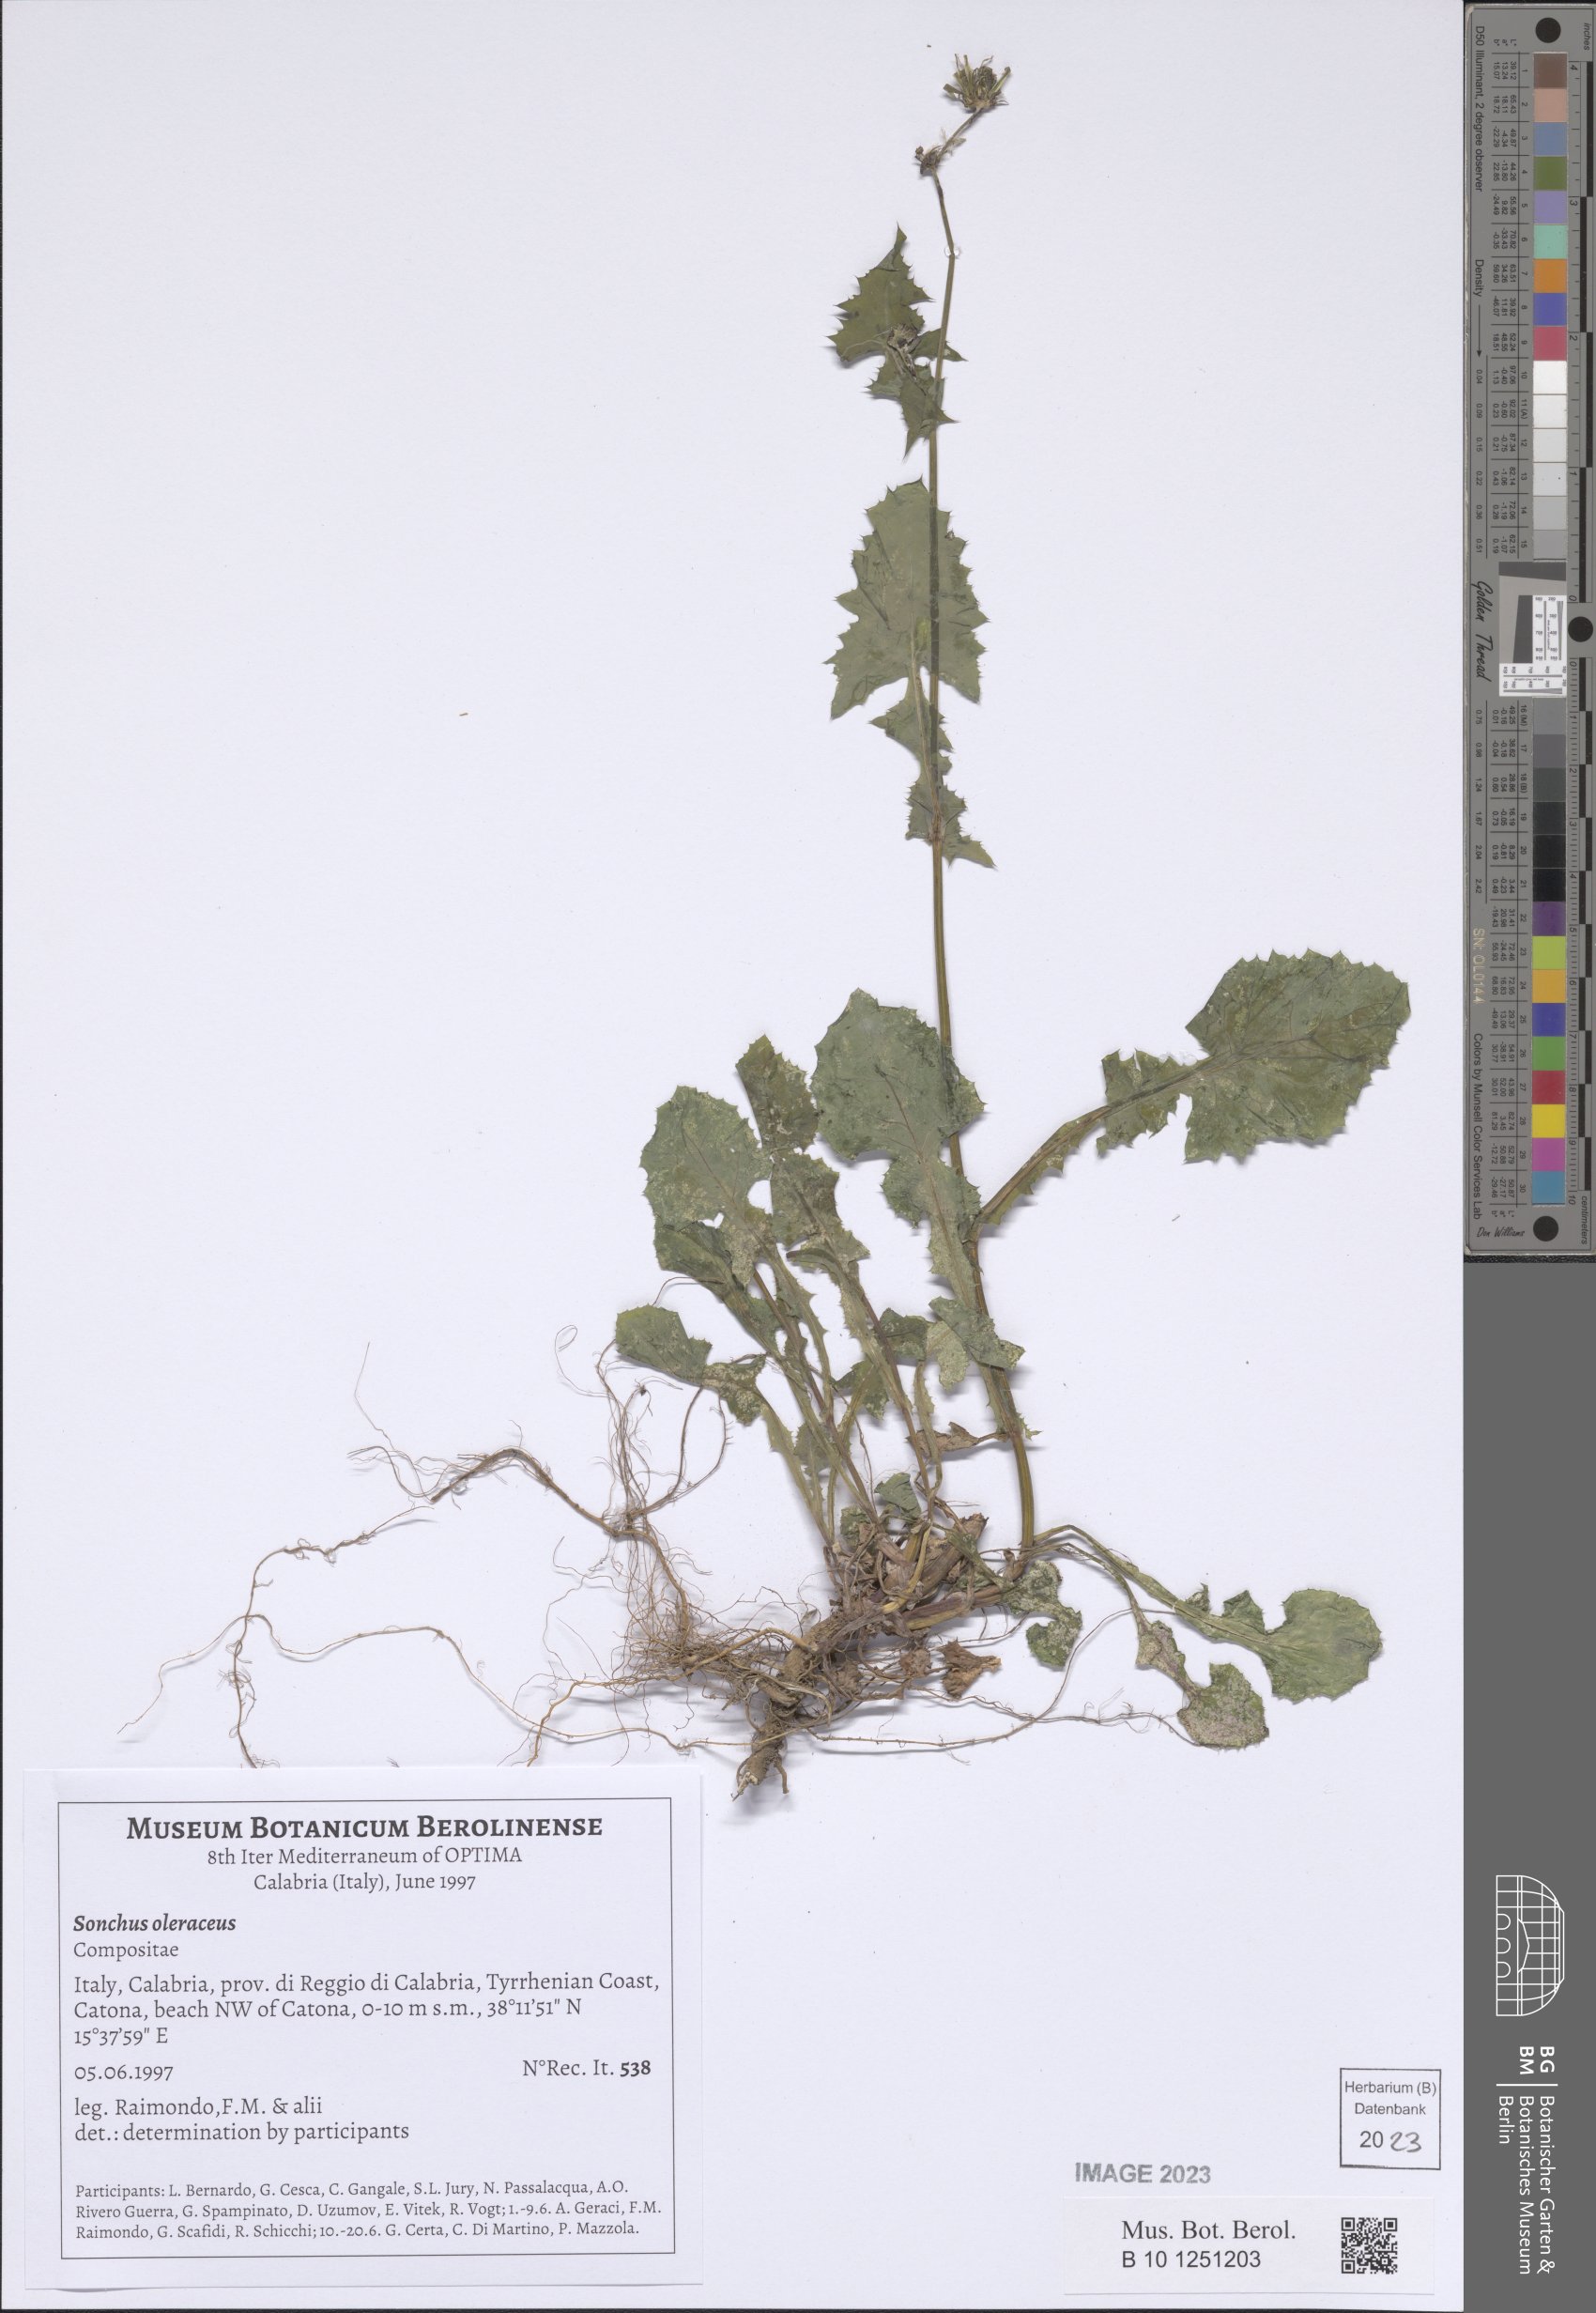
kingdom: Plantae
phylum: Tracheophyta
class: Magnoliopsida
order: Asterales
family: Asteraceae
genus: Sonchus
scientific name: Sonchus oleraceus
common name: Common sowthistle
